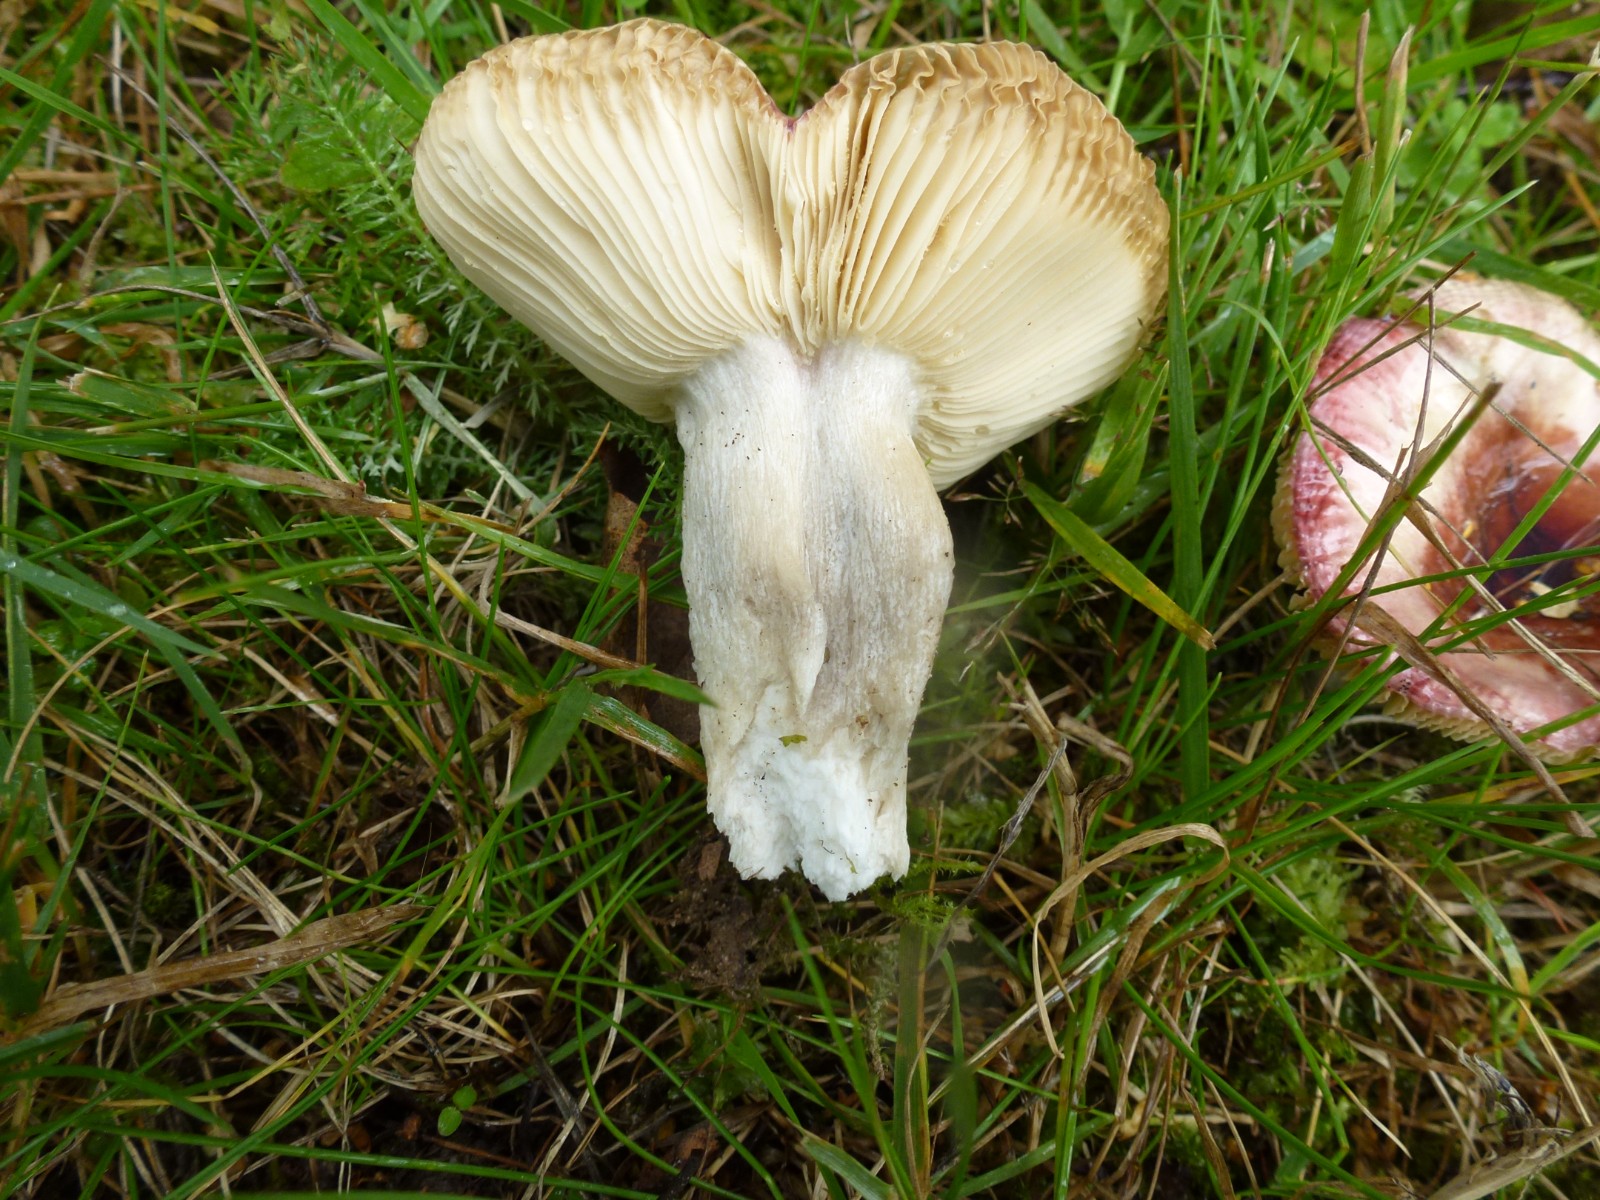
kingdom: Fungi
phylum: Basidiomycota
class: Agaricomycetes
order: Russulales
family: Russulaceae
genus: Russula
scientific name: Russula
